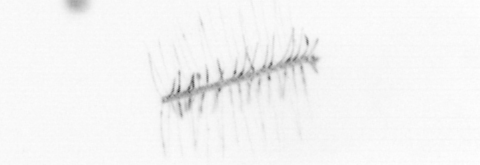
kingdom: Chromista
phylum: Ochrophyta
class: Bacillariophyceae
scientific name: Bacillariophyceae
